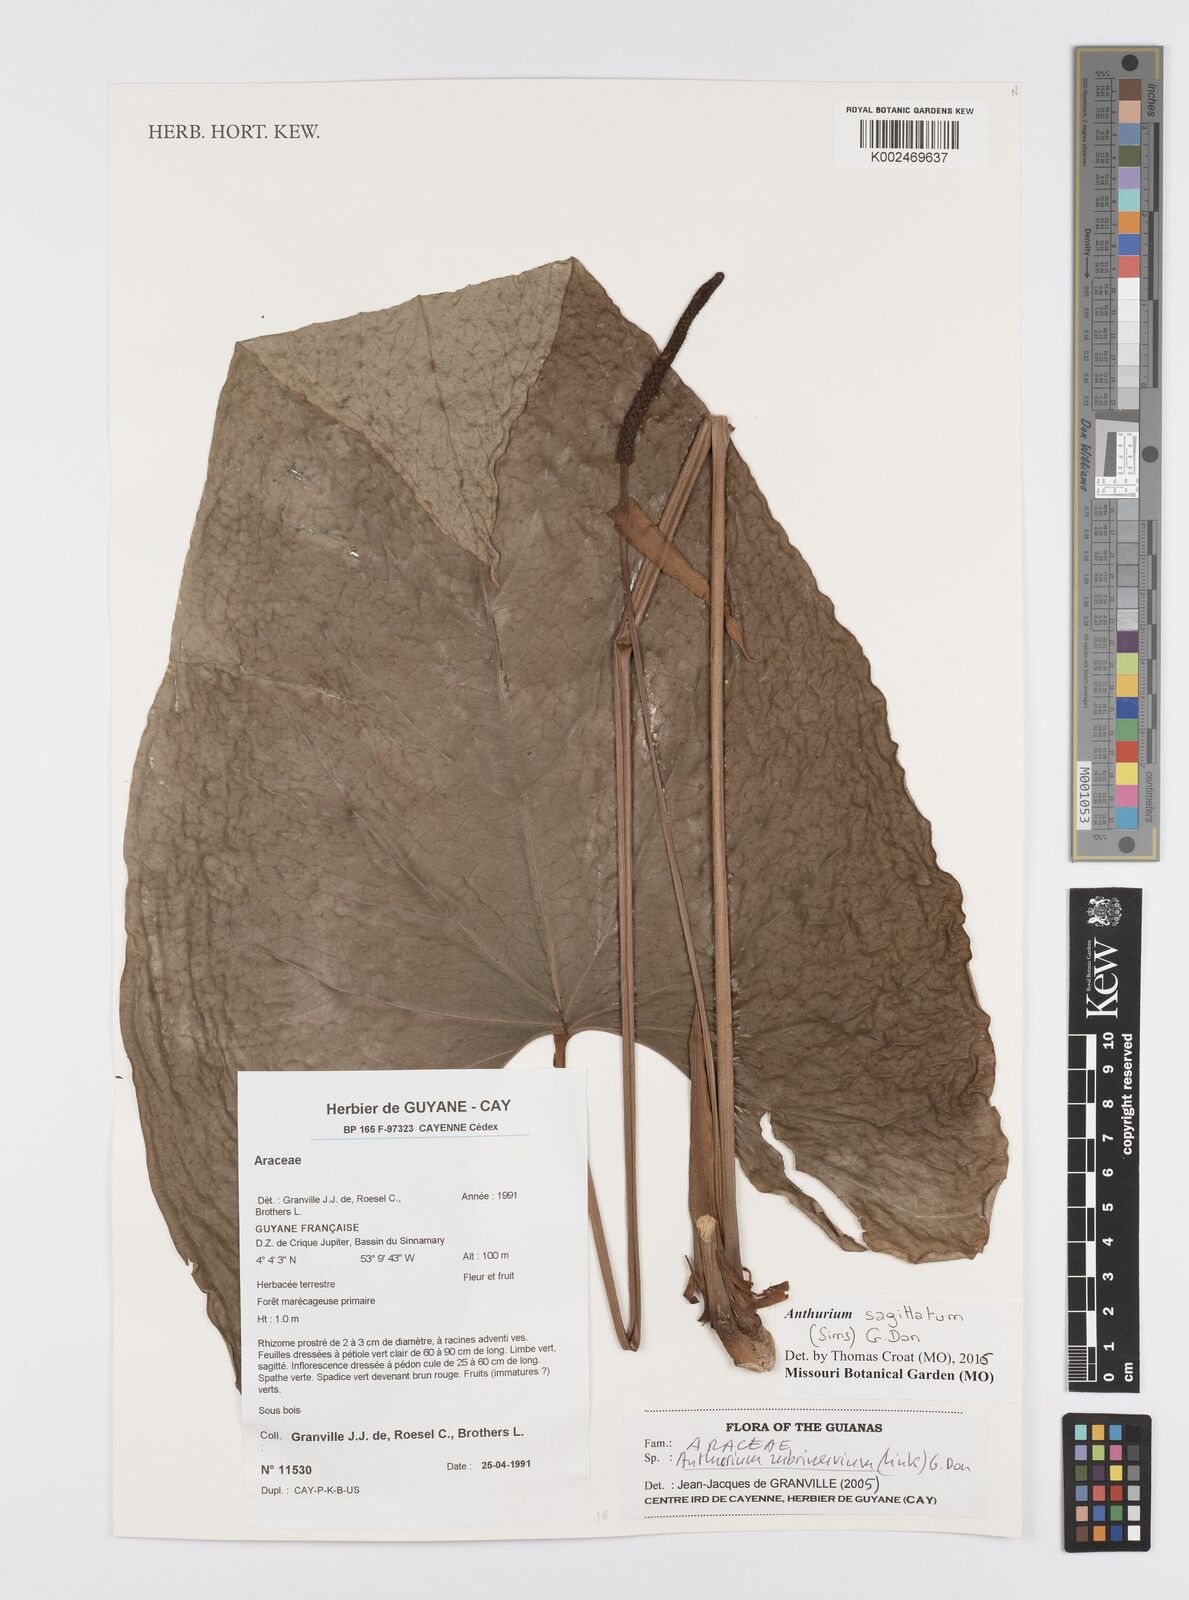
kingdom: Plantae
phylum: Tracheophyta
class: Liliopsida
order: Alismatales
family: Araceae
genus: Anthurium
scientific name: Anthurium sagittatum
